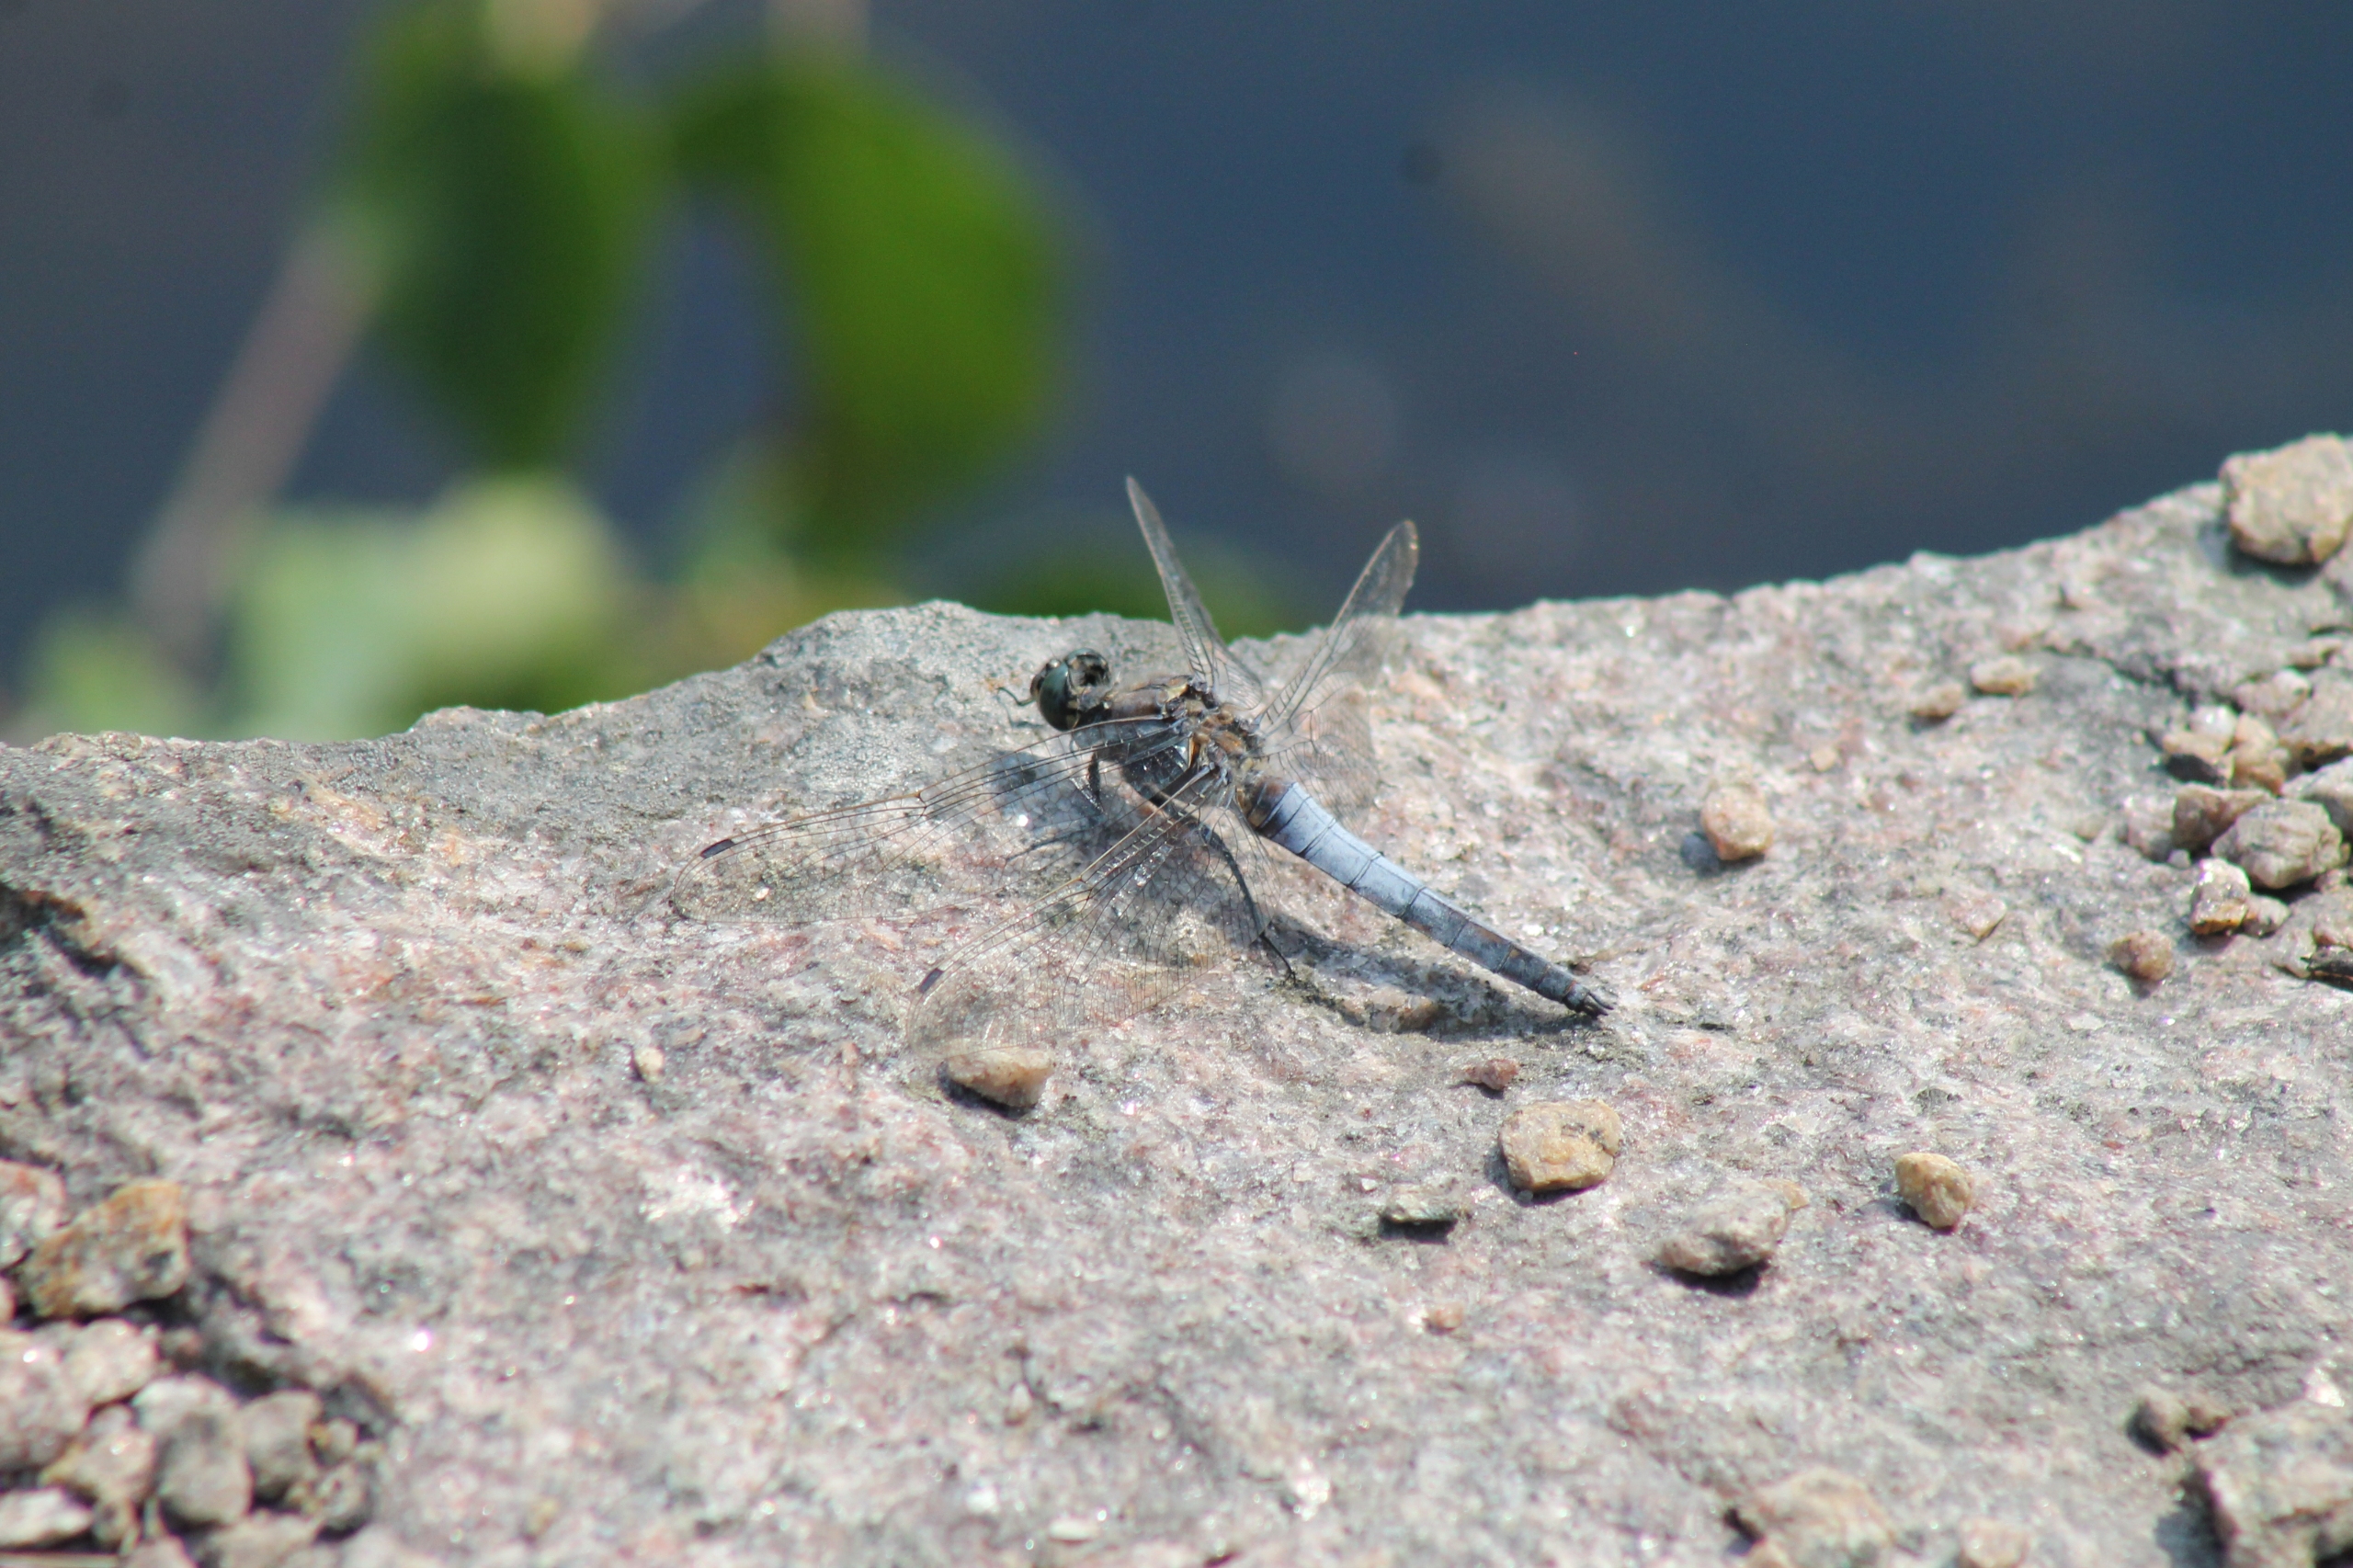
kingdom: Animalia
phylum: Arthropoda
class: Insecta
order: Odonata
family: Libellulidae
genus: Orthetrum
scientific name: Orthetrum cancellatum
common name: Stor blåpil
